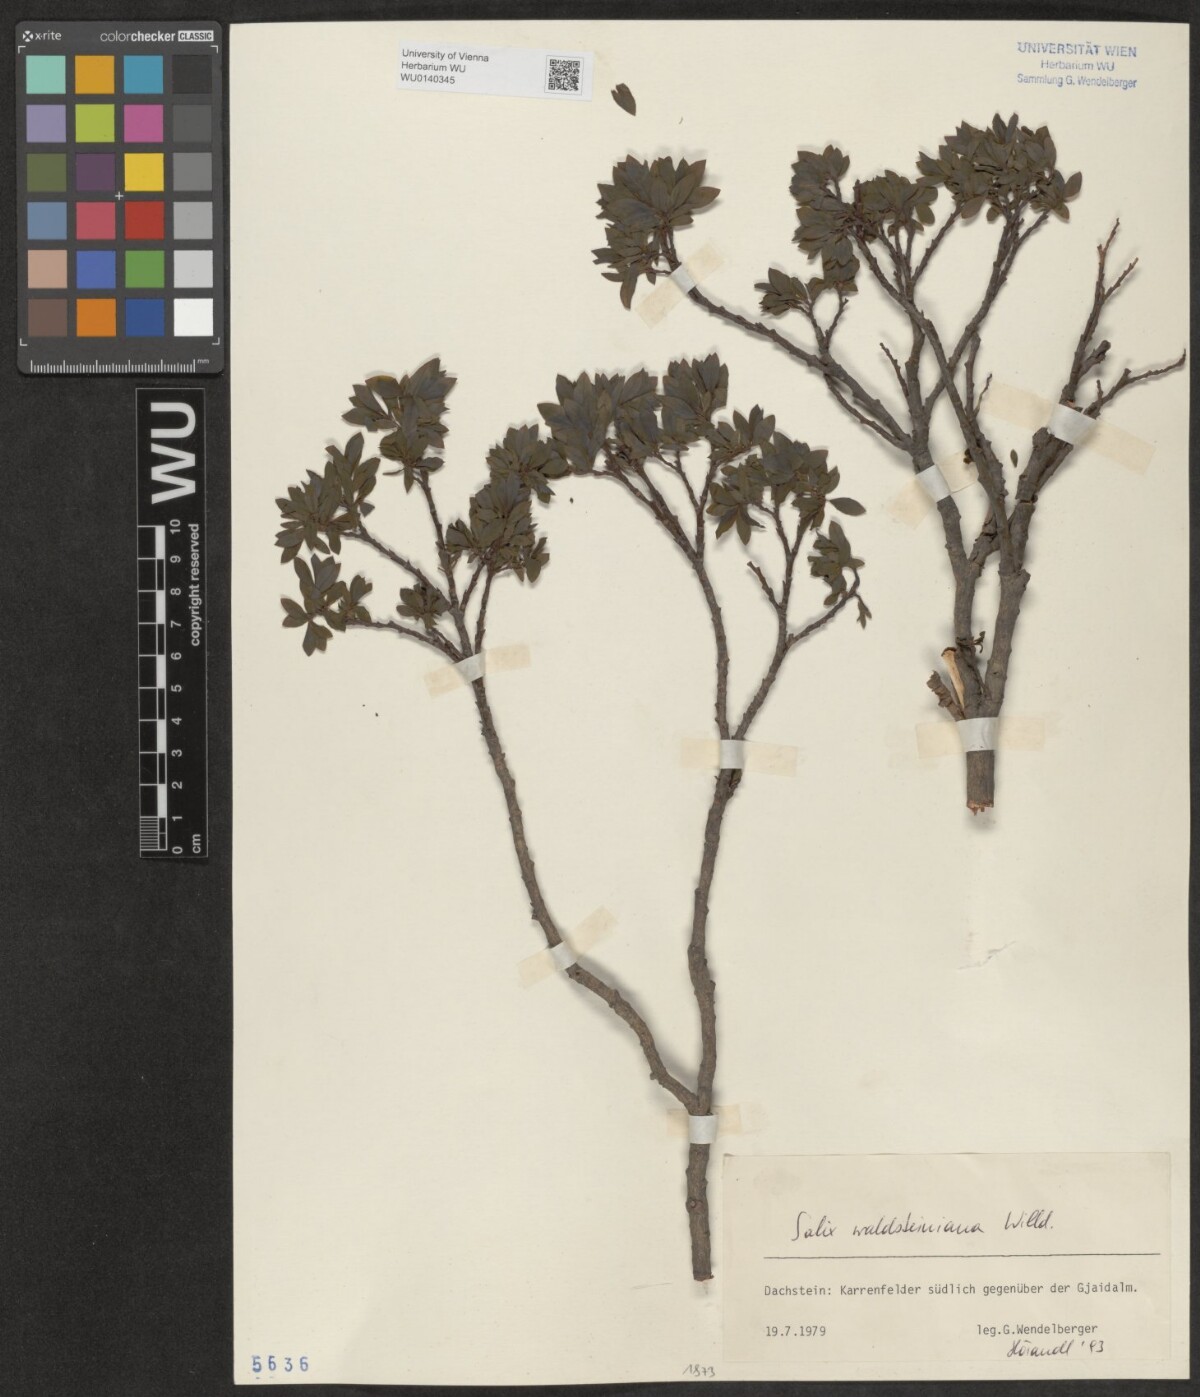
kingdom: Plantae
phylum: Tracheophyta
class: Magnoliopsida
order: Malpighiales
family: Salicaceae
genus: Salix
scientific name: Salix waldsteiniana
